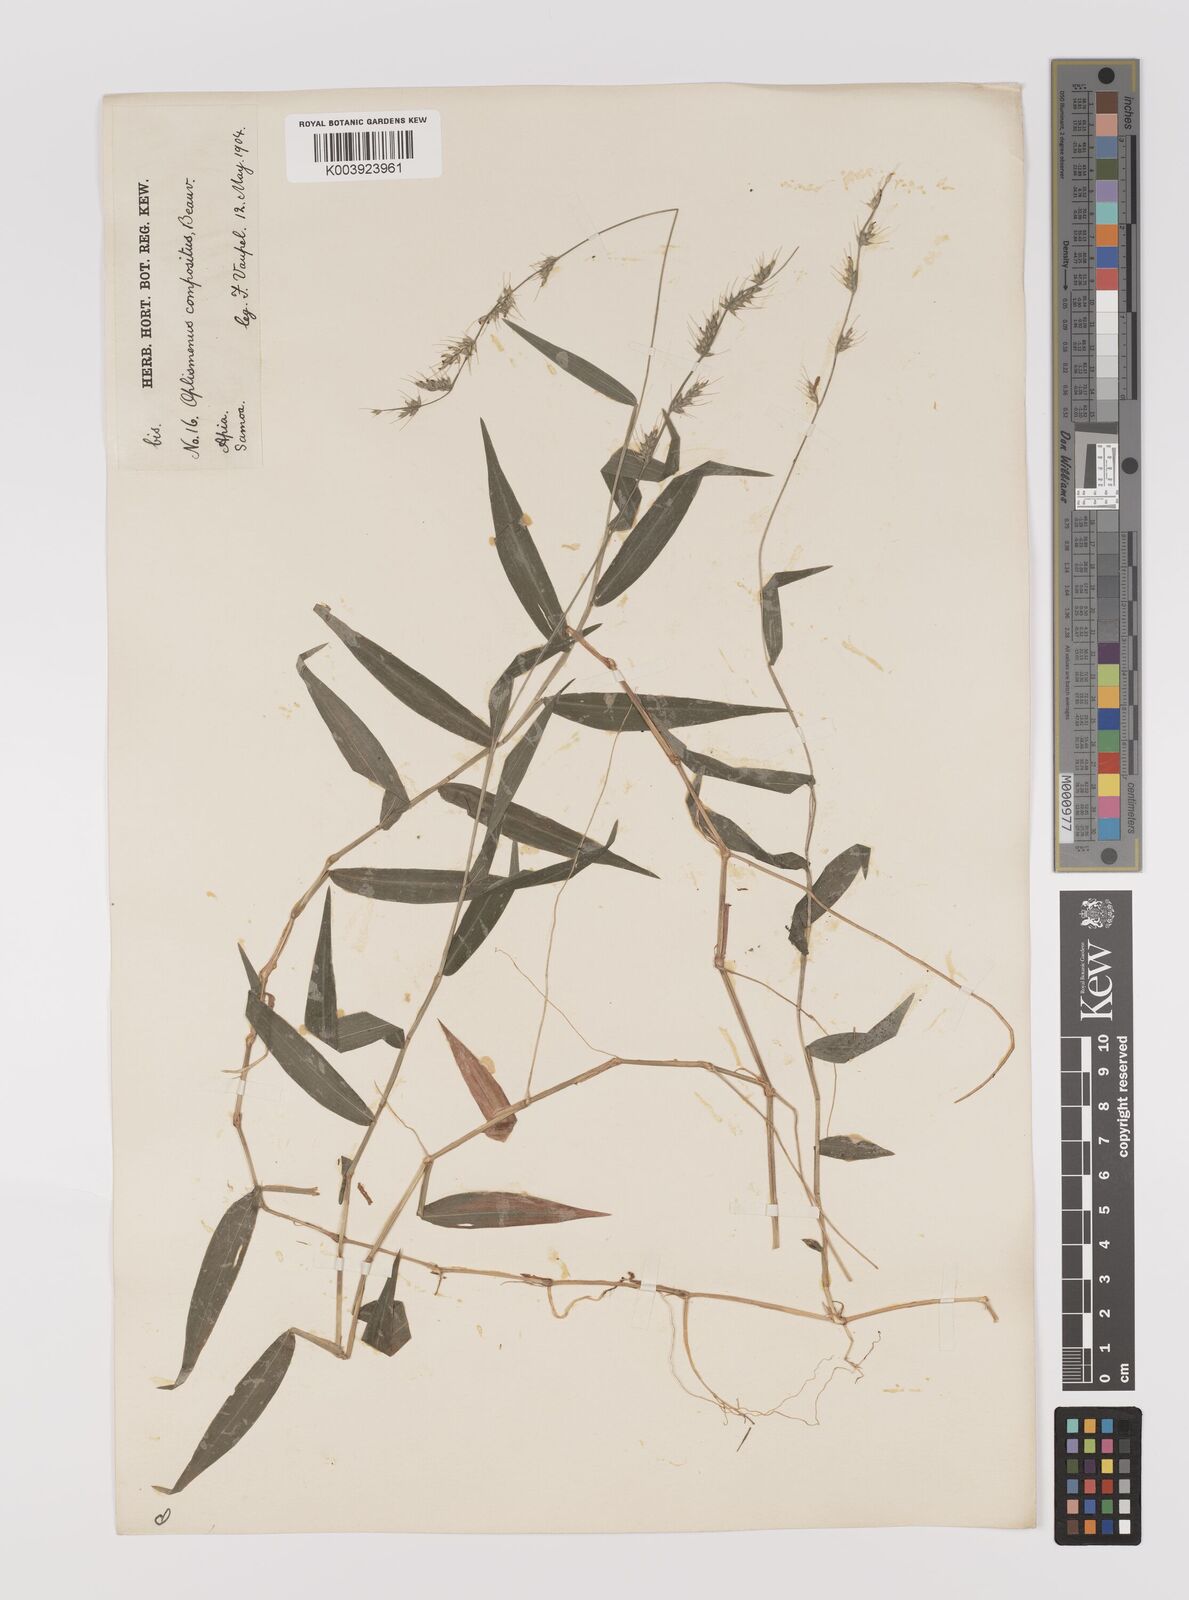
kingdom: Plantae
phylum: Tracheophyta
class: Liliopsida
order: Poales
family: Poaceae
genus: Oplismenus
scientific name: Oplismenus compositus
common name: Running mountain grass
